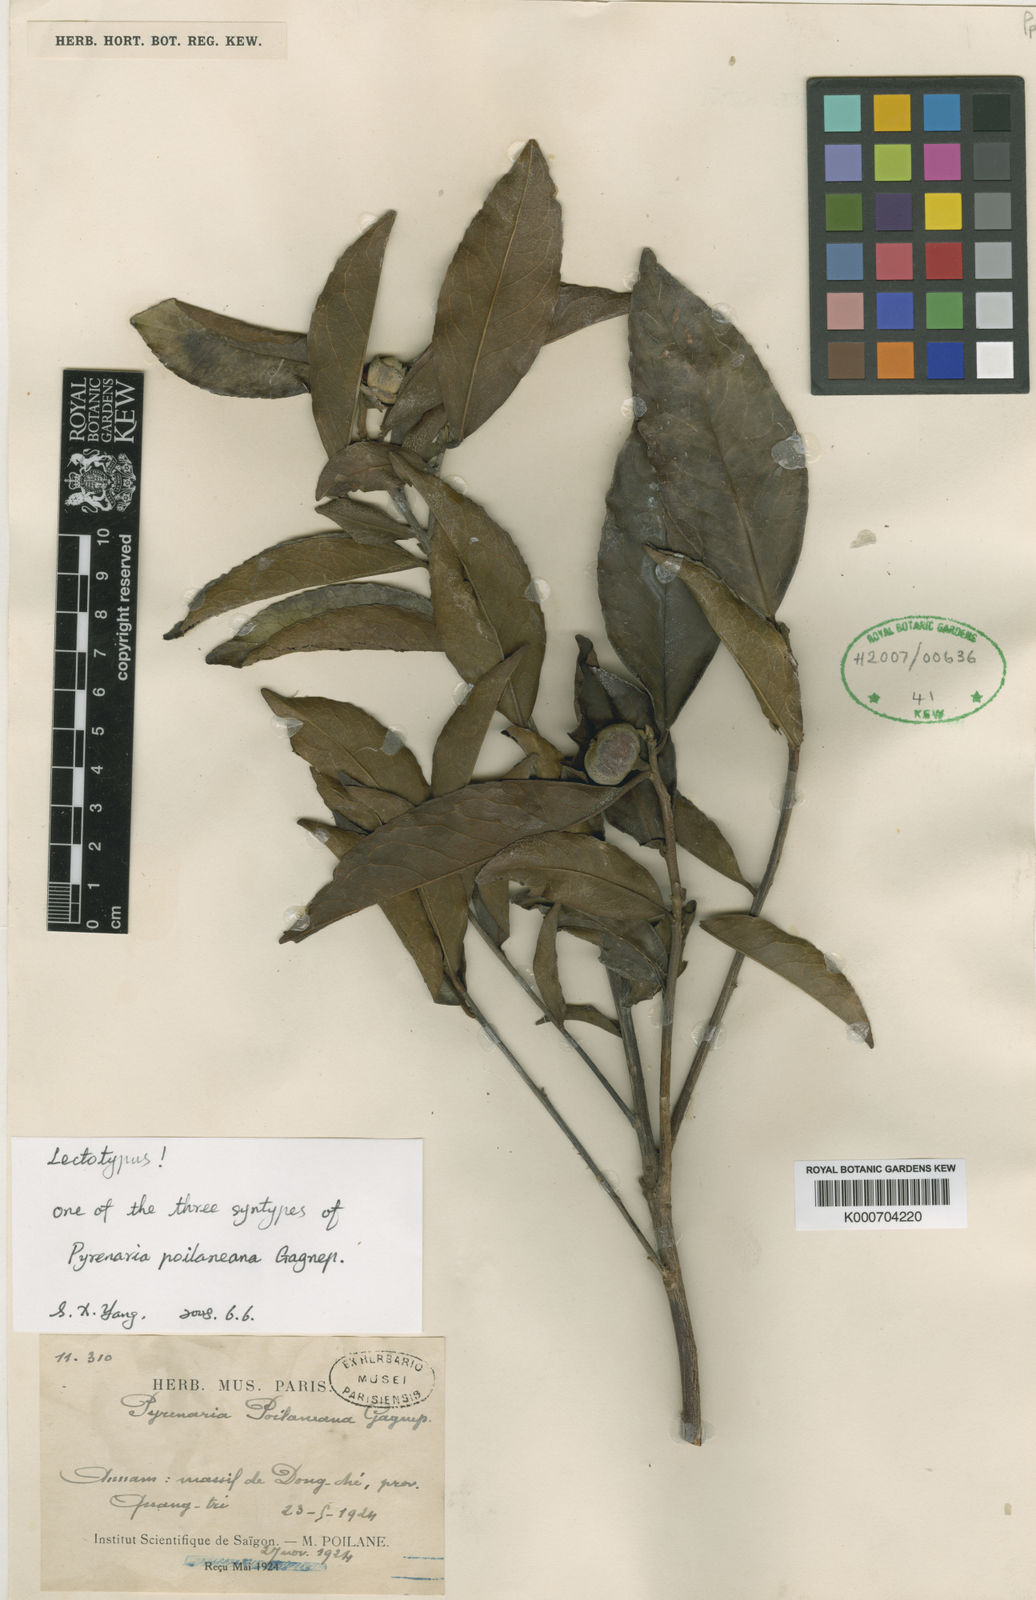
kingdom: Plantae
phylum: Tracheophyta
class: Magnoliopsida
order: Ericales
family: Theaceae
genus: Pyrenaria
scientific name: Pyrenaria poilaneana
